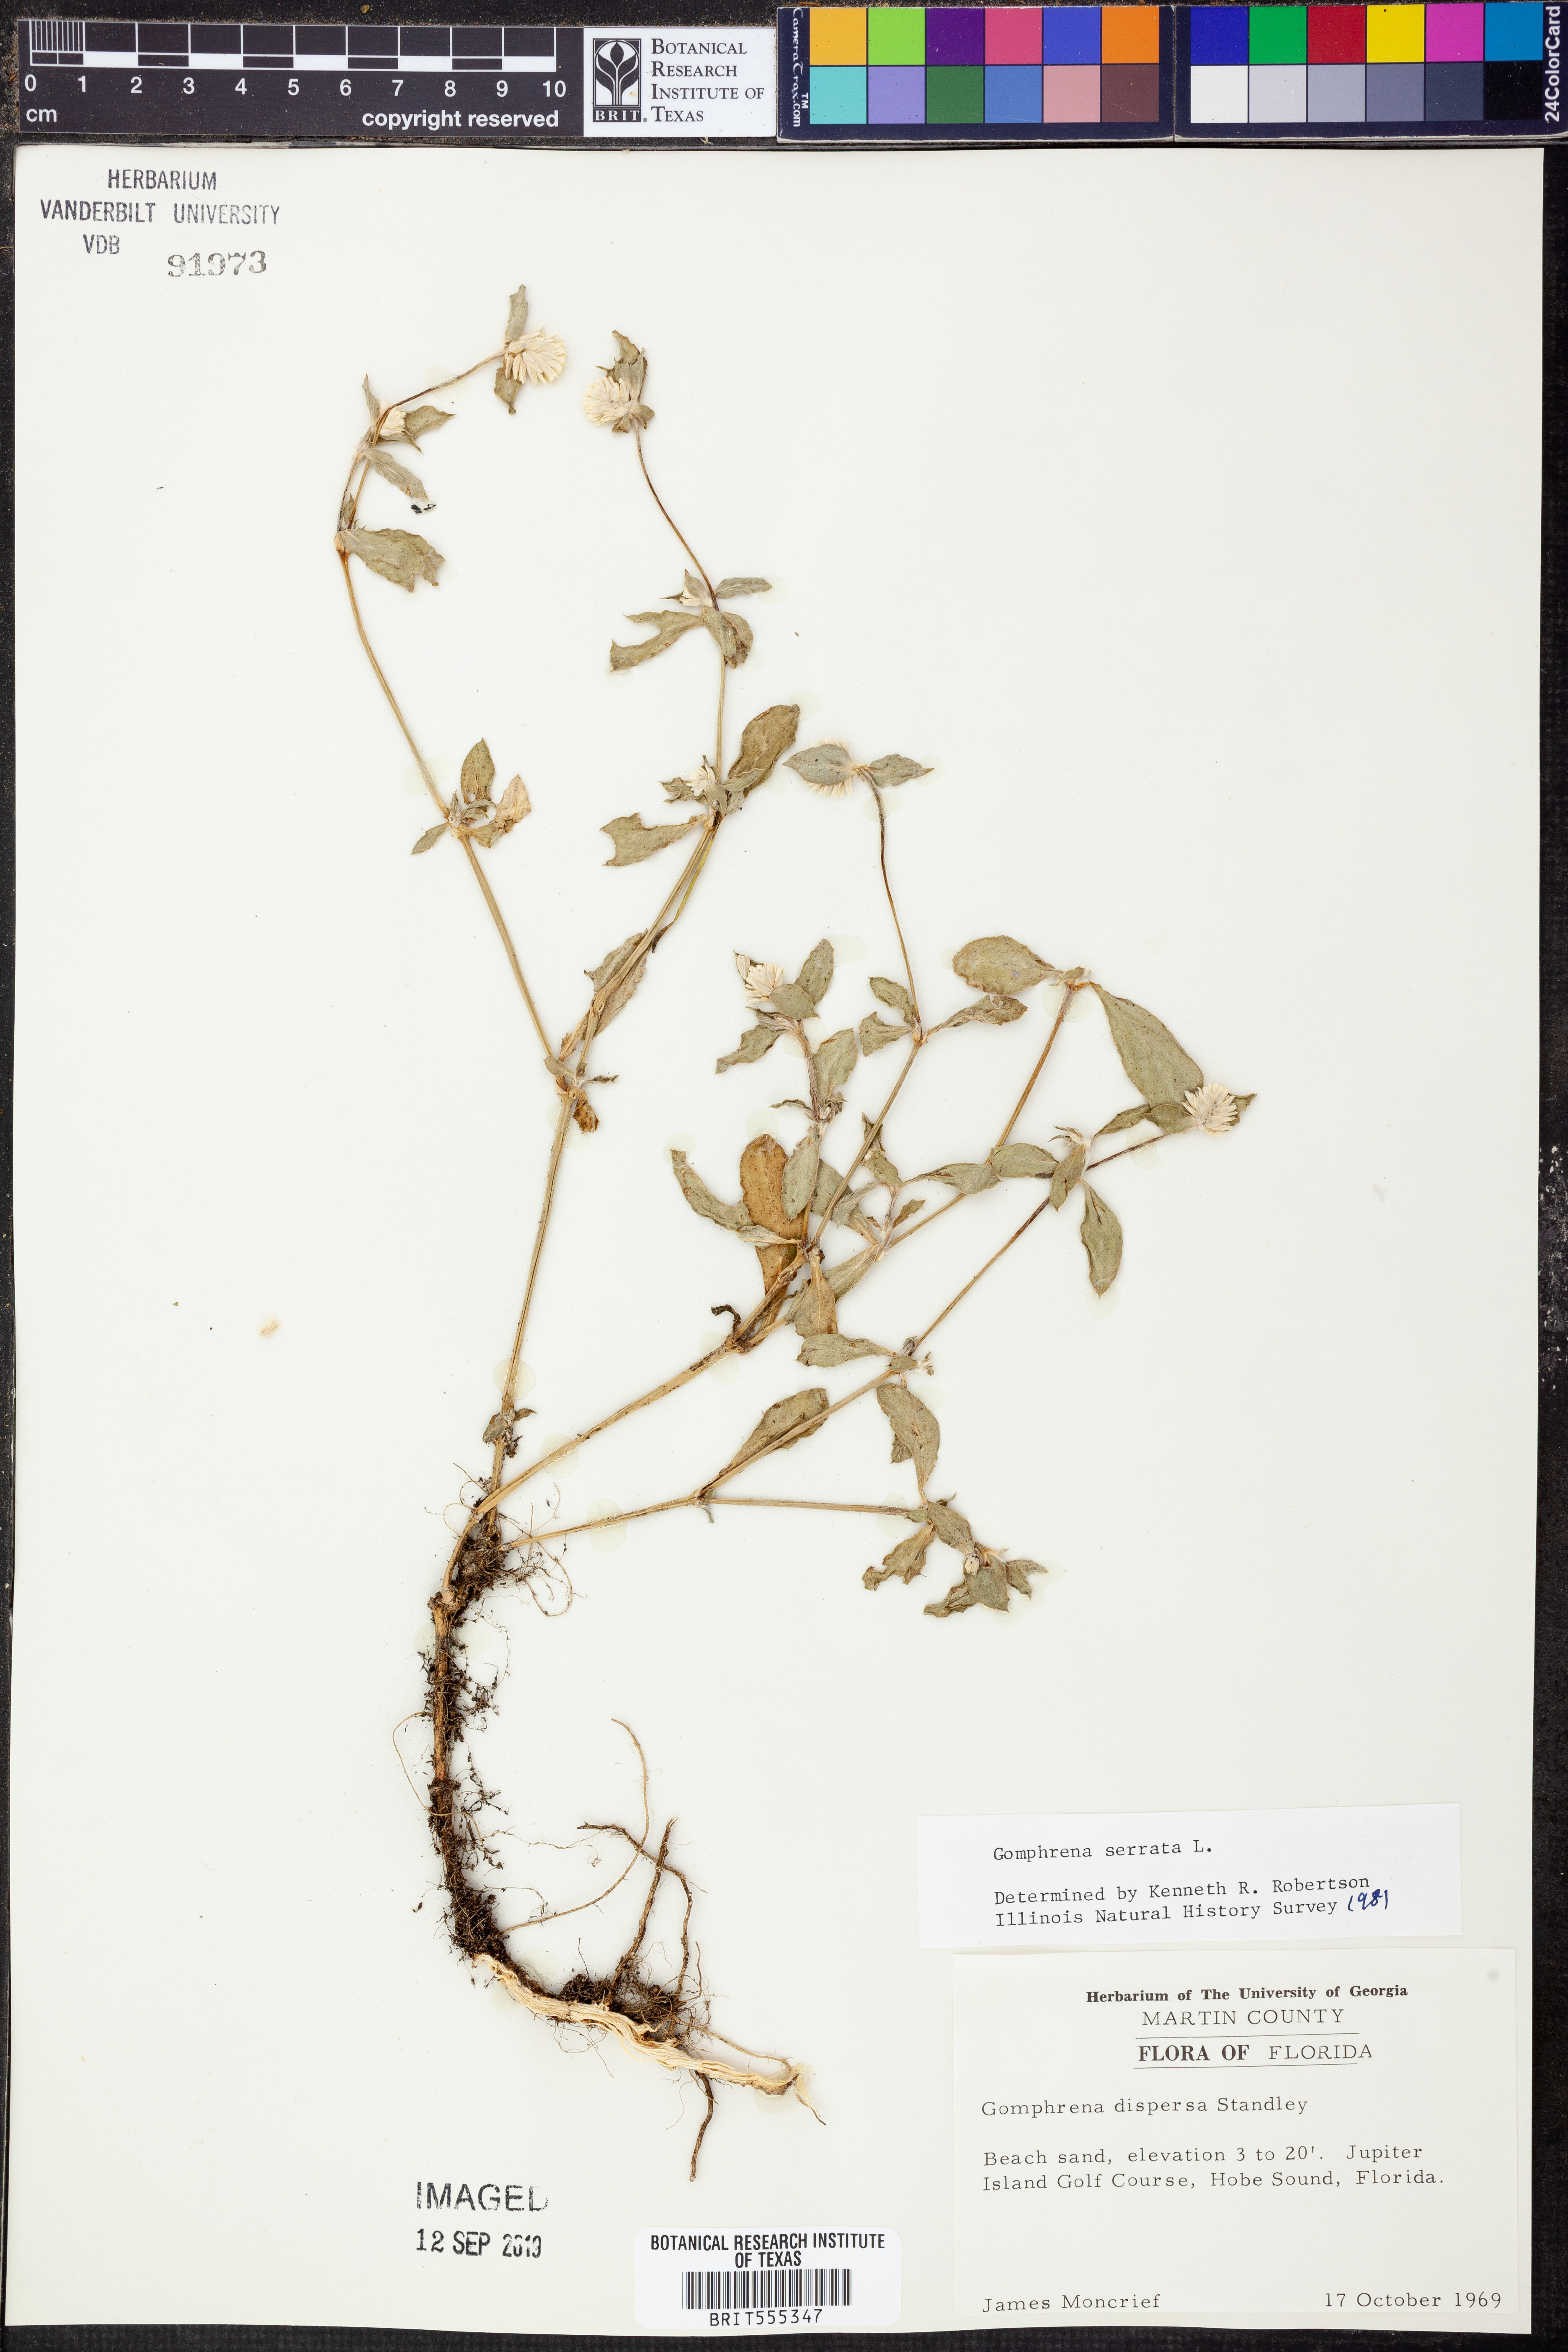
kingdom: Plantae
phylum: Tracheophyta
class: Magnoliopsida
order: Caryophyllales
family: Amaranthaceae
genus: Gomphrena
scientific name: Gomphrena serrata
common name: Arrasa con todo
